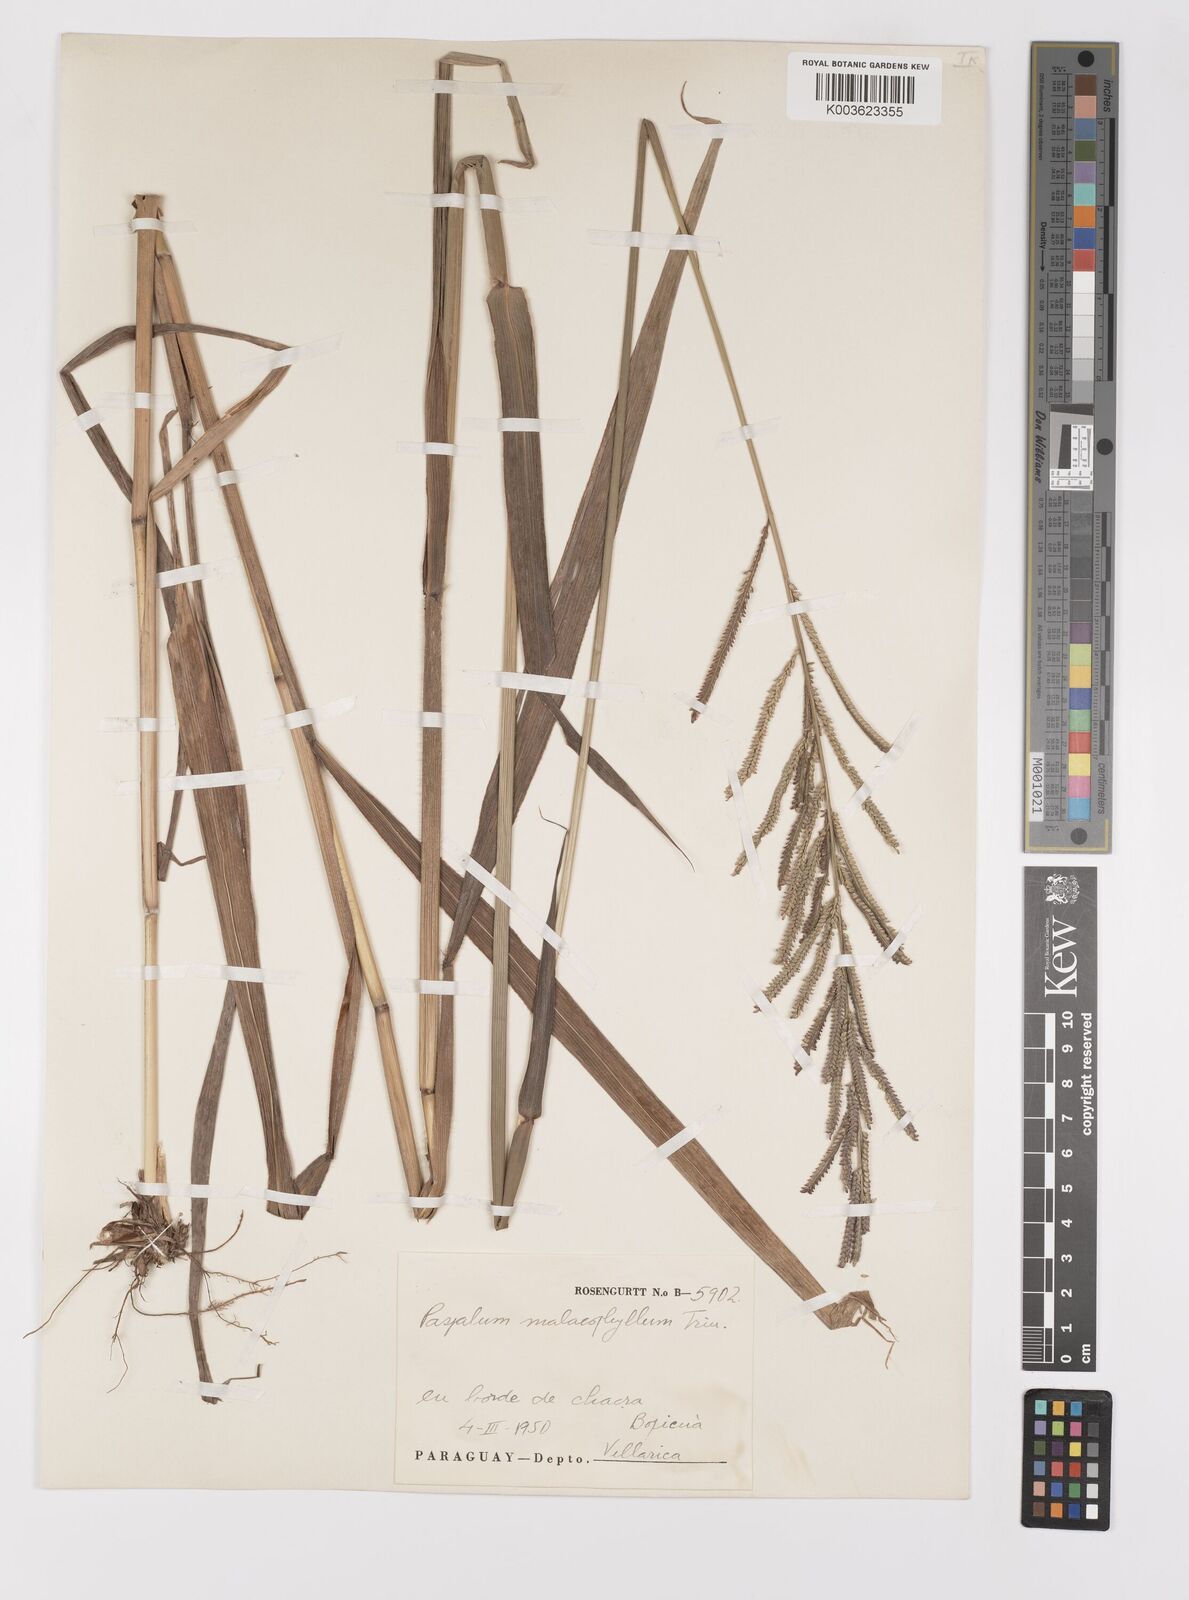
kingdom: Plantae
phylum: Tracheophyta
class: Liliopsida
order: Poales
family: Poaceae
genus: Paspalum
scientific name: Paspalum malacophyllum
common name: Ribbed paspalum
